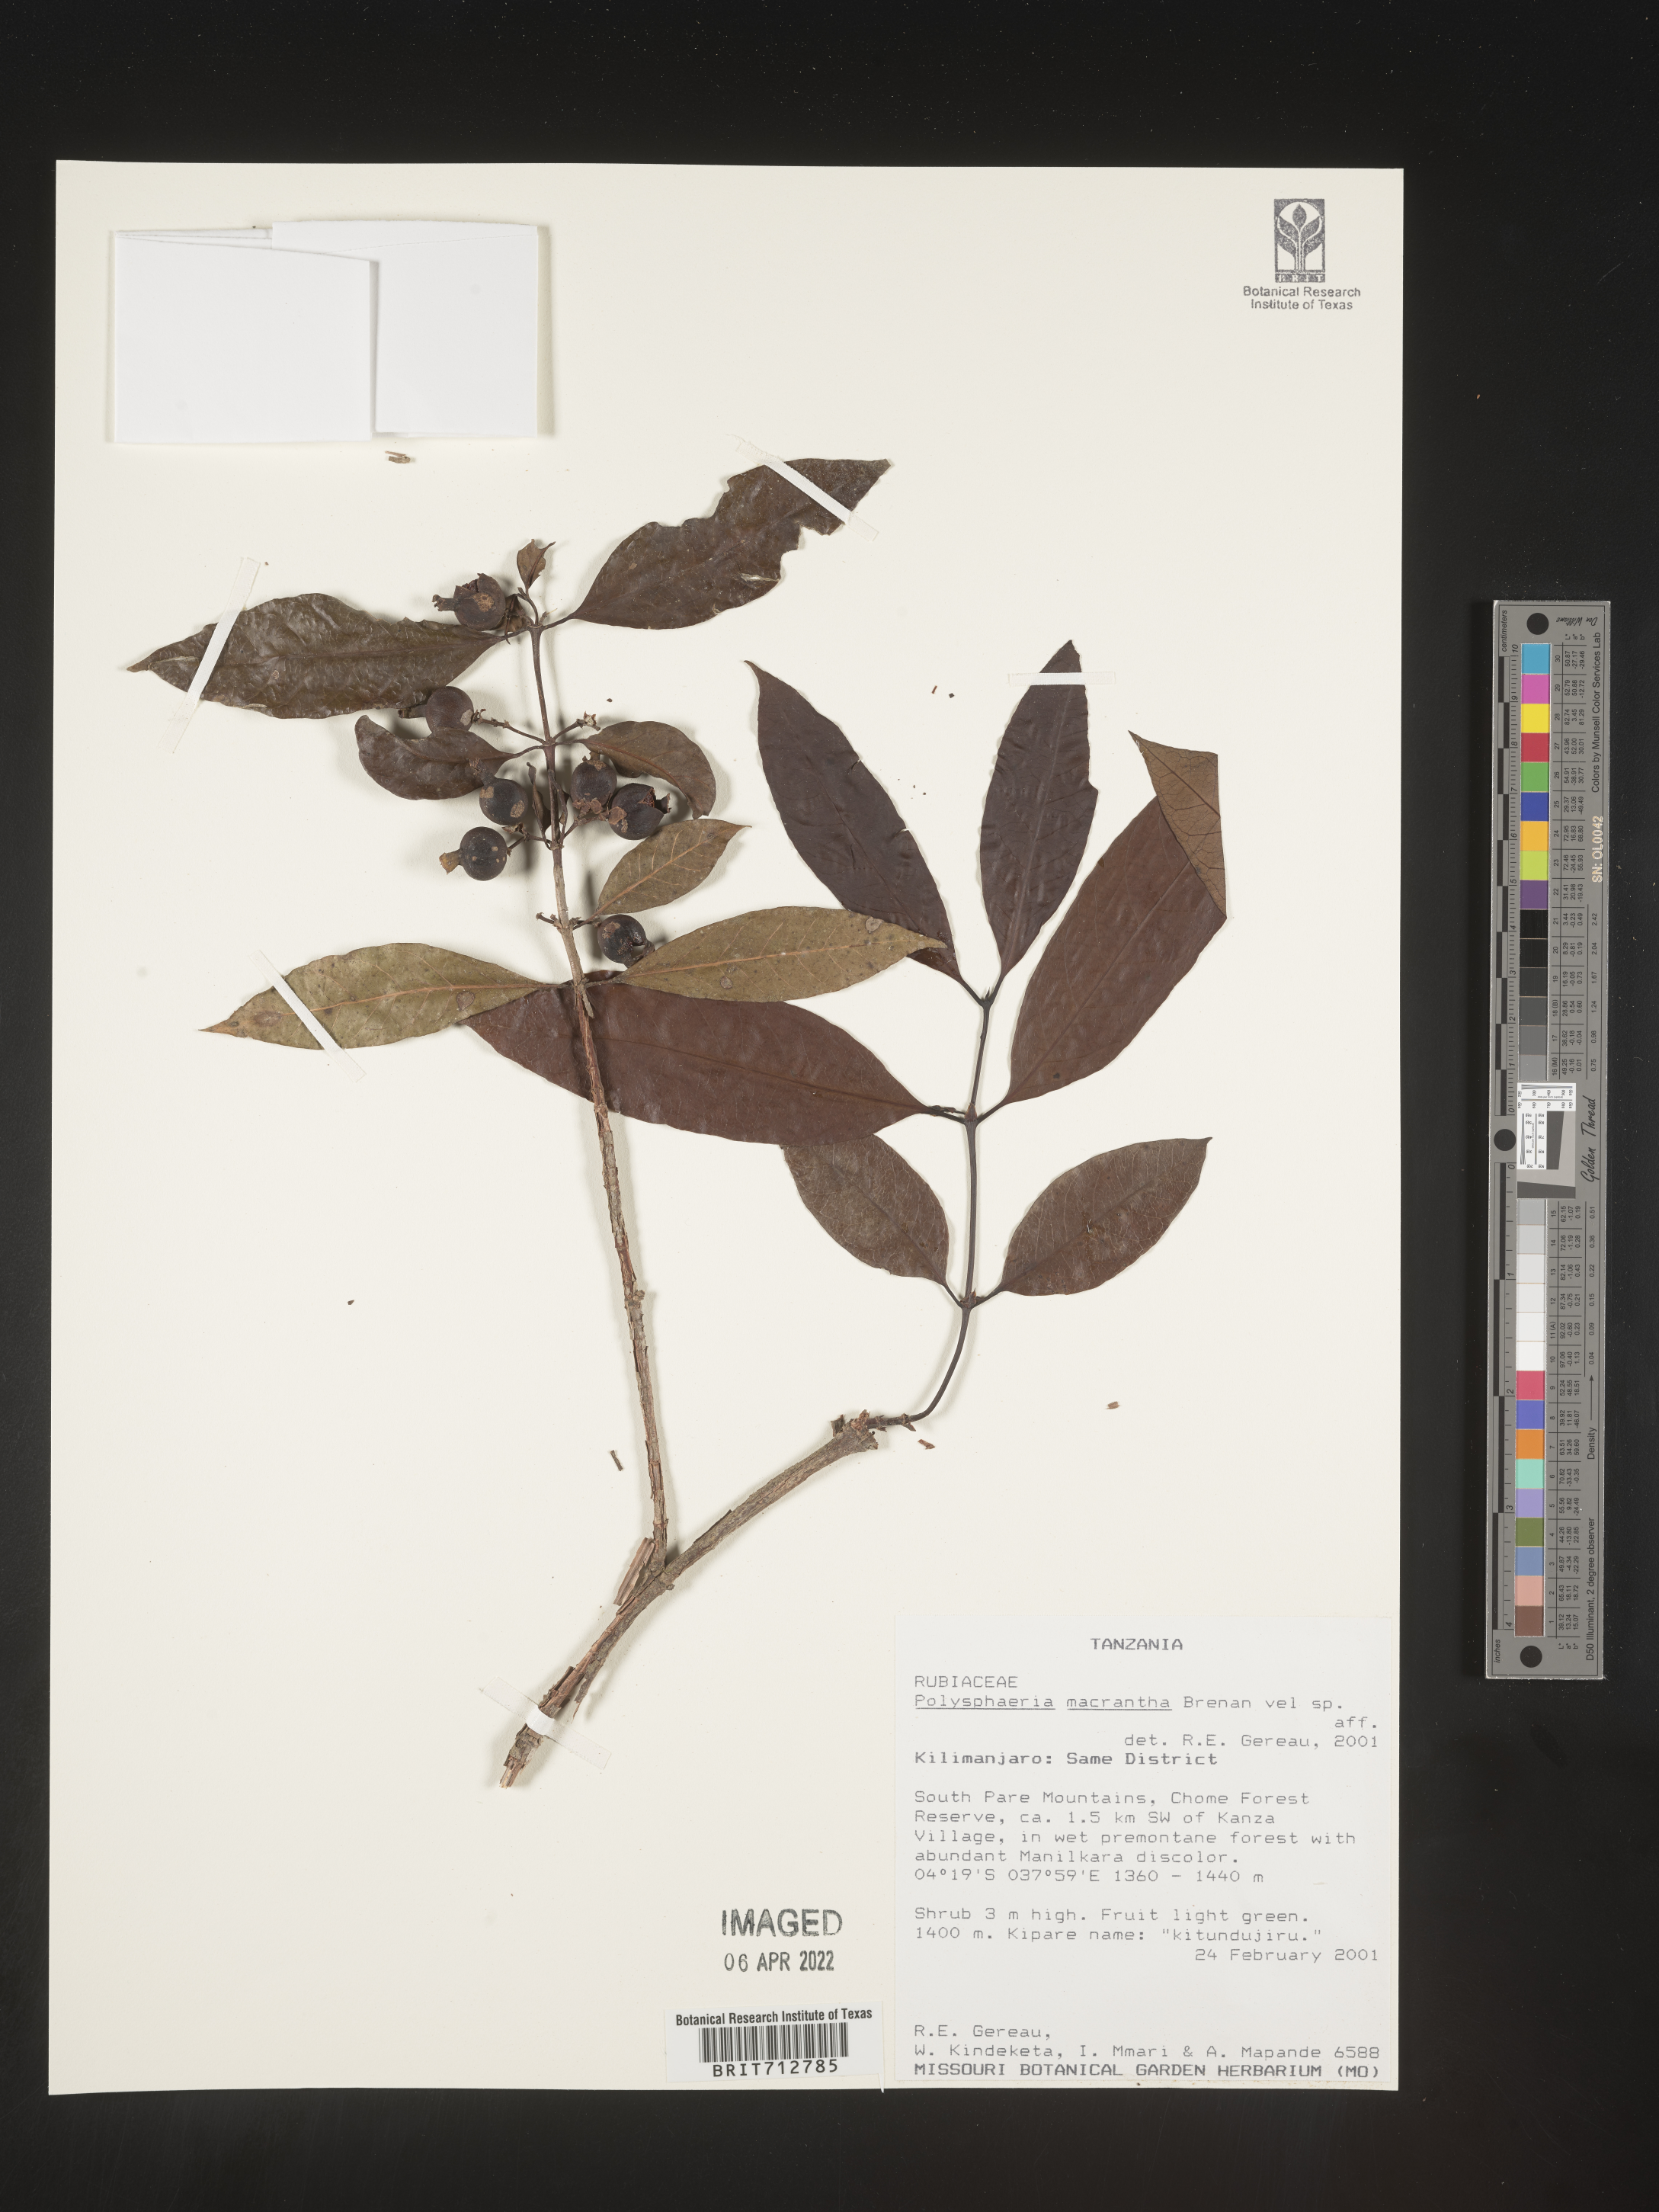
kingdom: Plantae
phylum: Tracheophyta
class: Magnoliopsida
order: Gentianales
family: Rubiaceae
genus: Polysphaeria
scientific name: Polysphaeria
